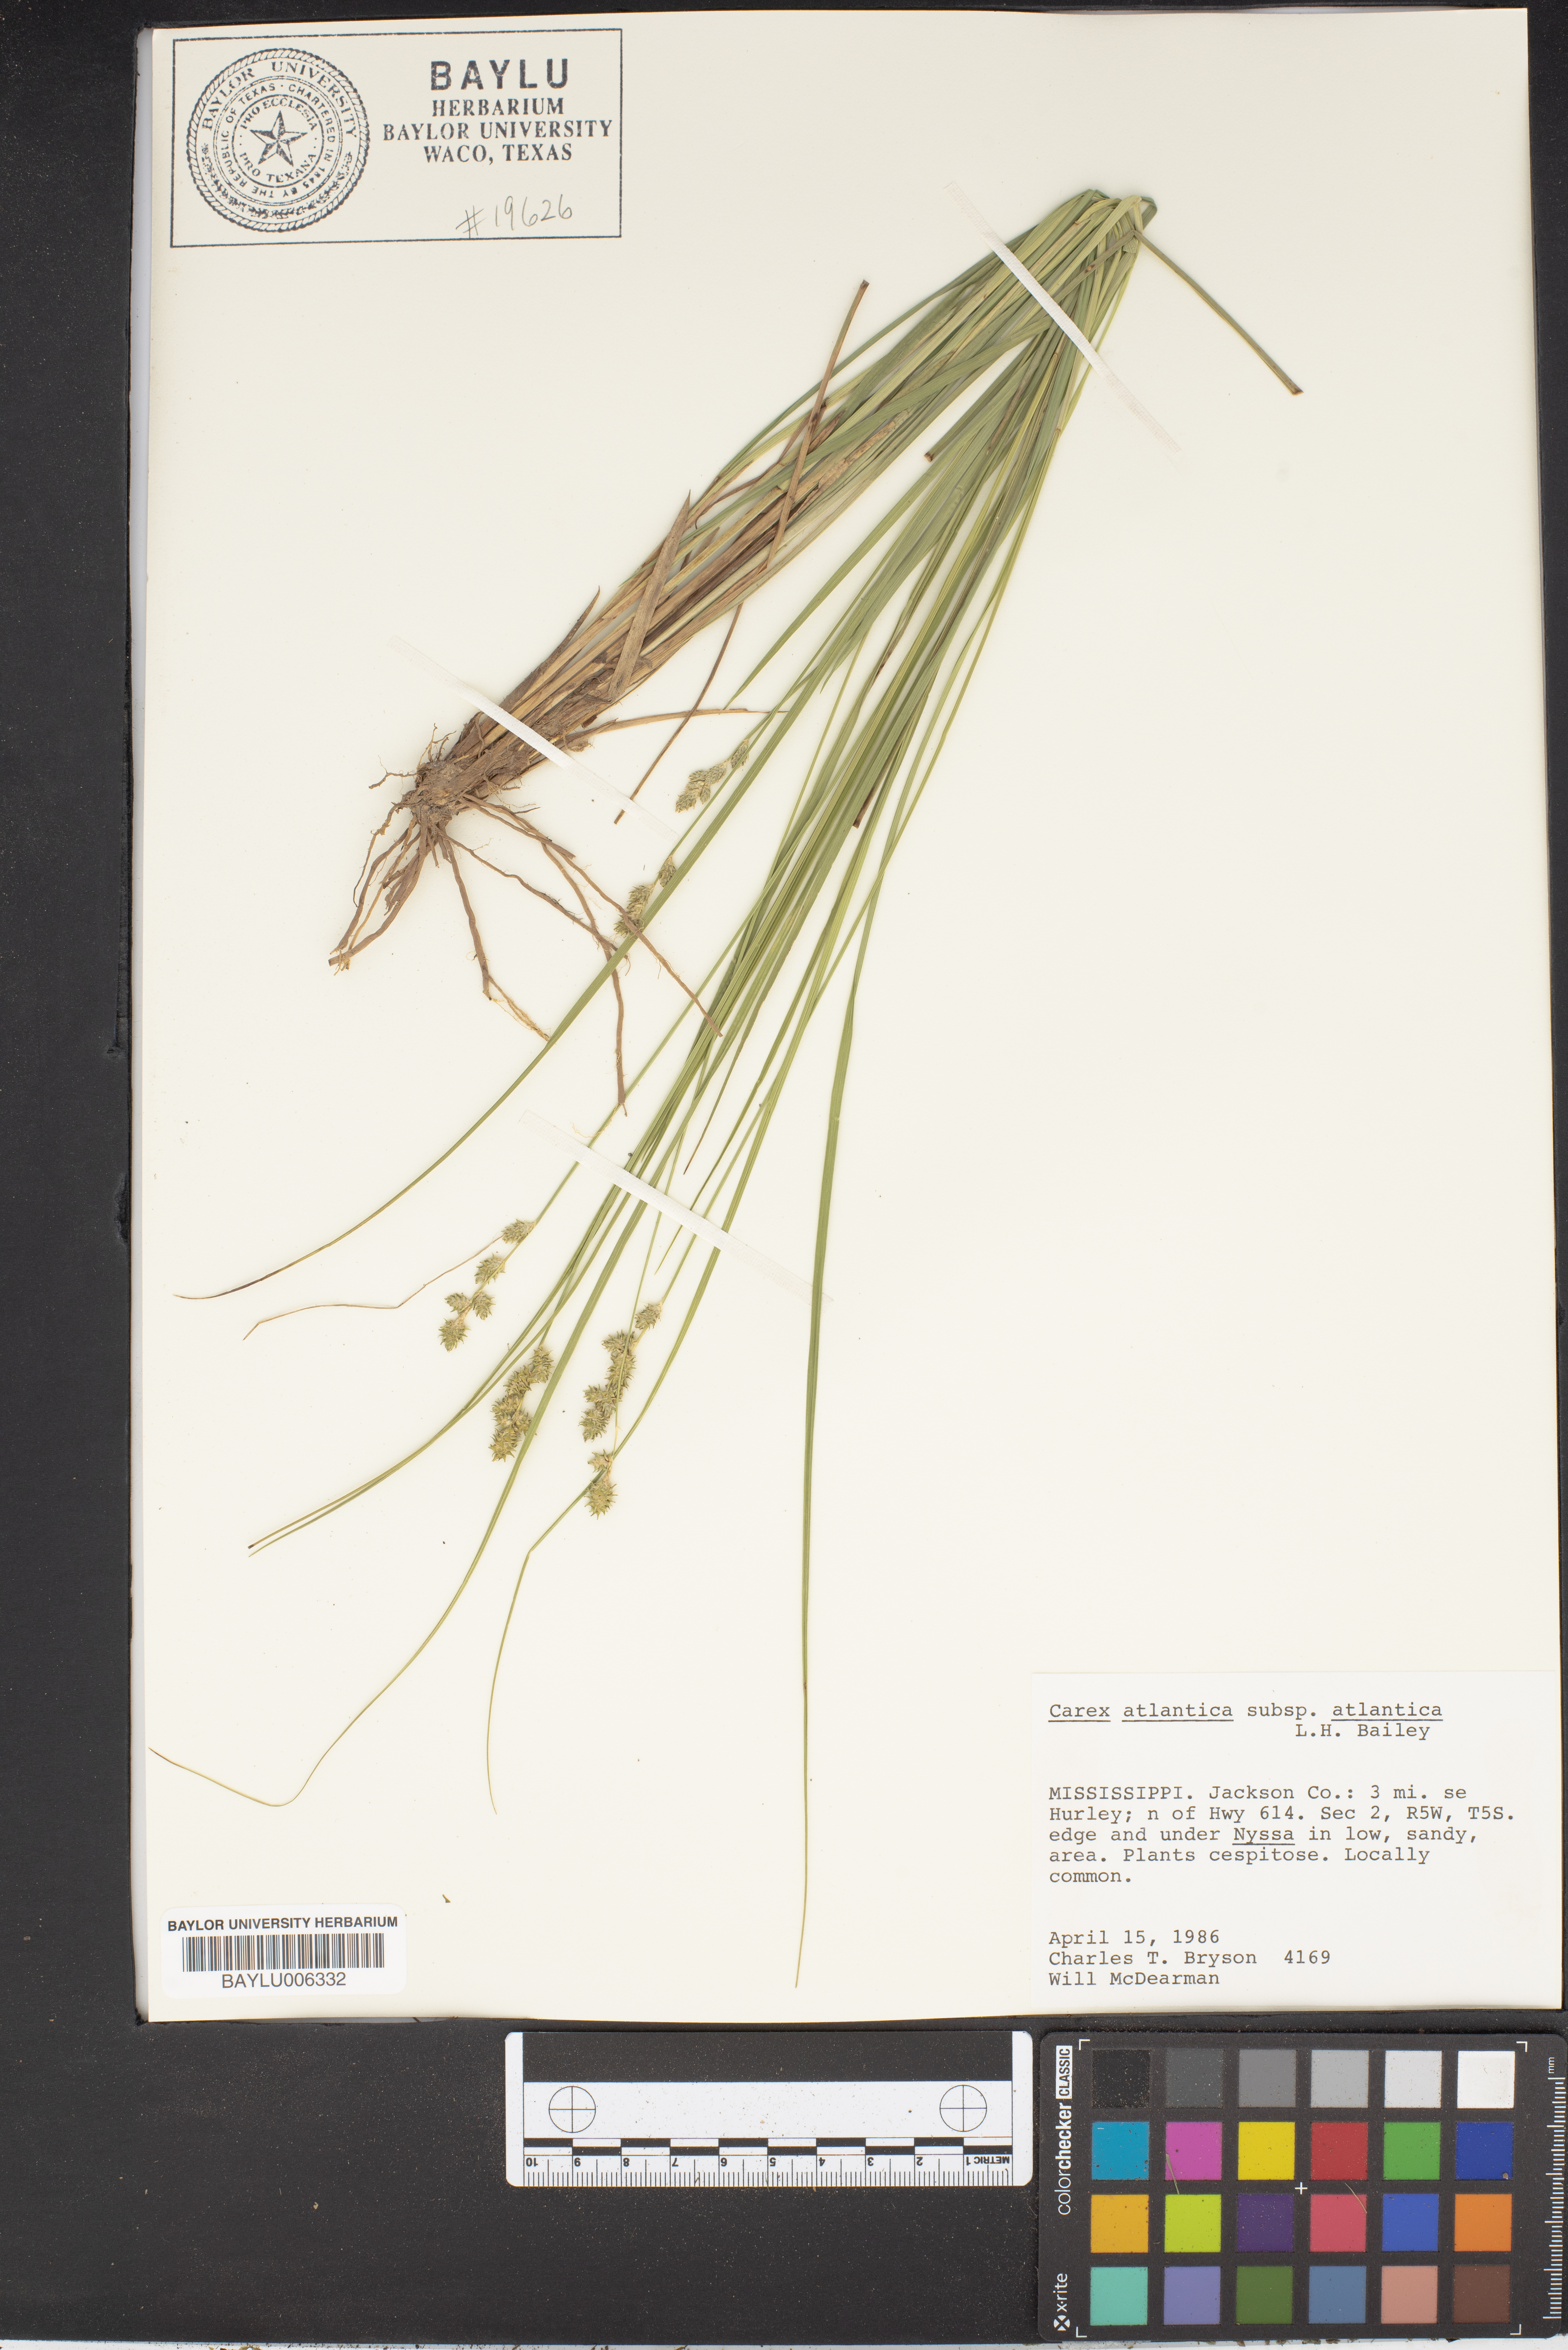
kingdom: Plantae
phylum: Tracheophyta
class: Liliopsida
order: Poales
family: Cyperaceae
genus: Carex
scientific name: Carex atlantica
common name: Atlantic sedge
